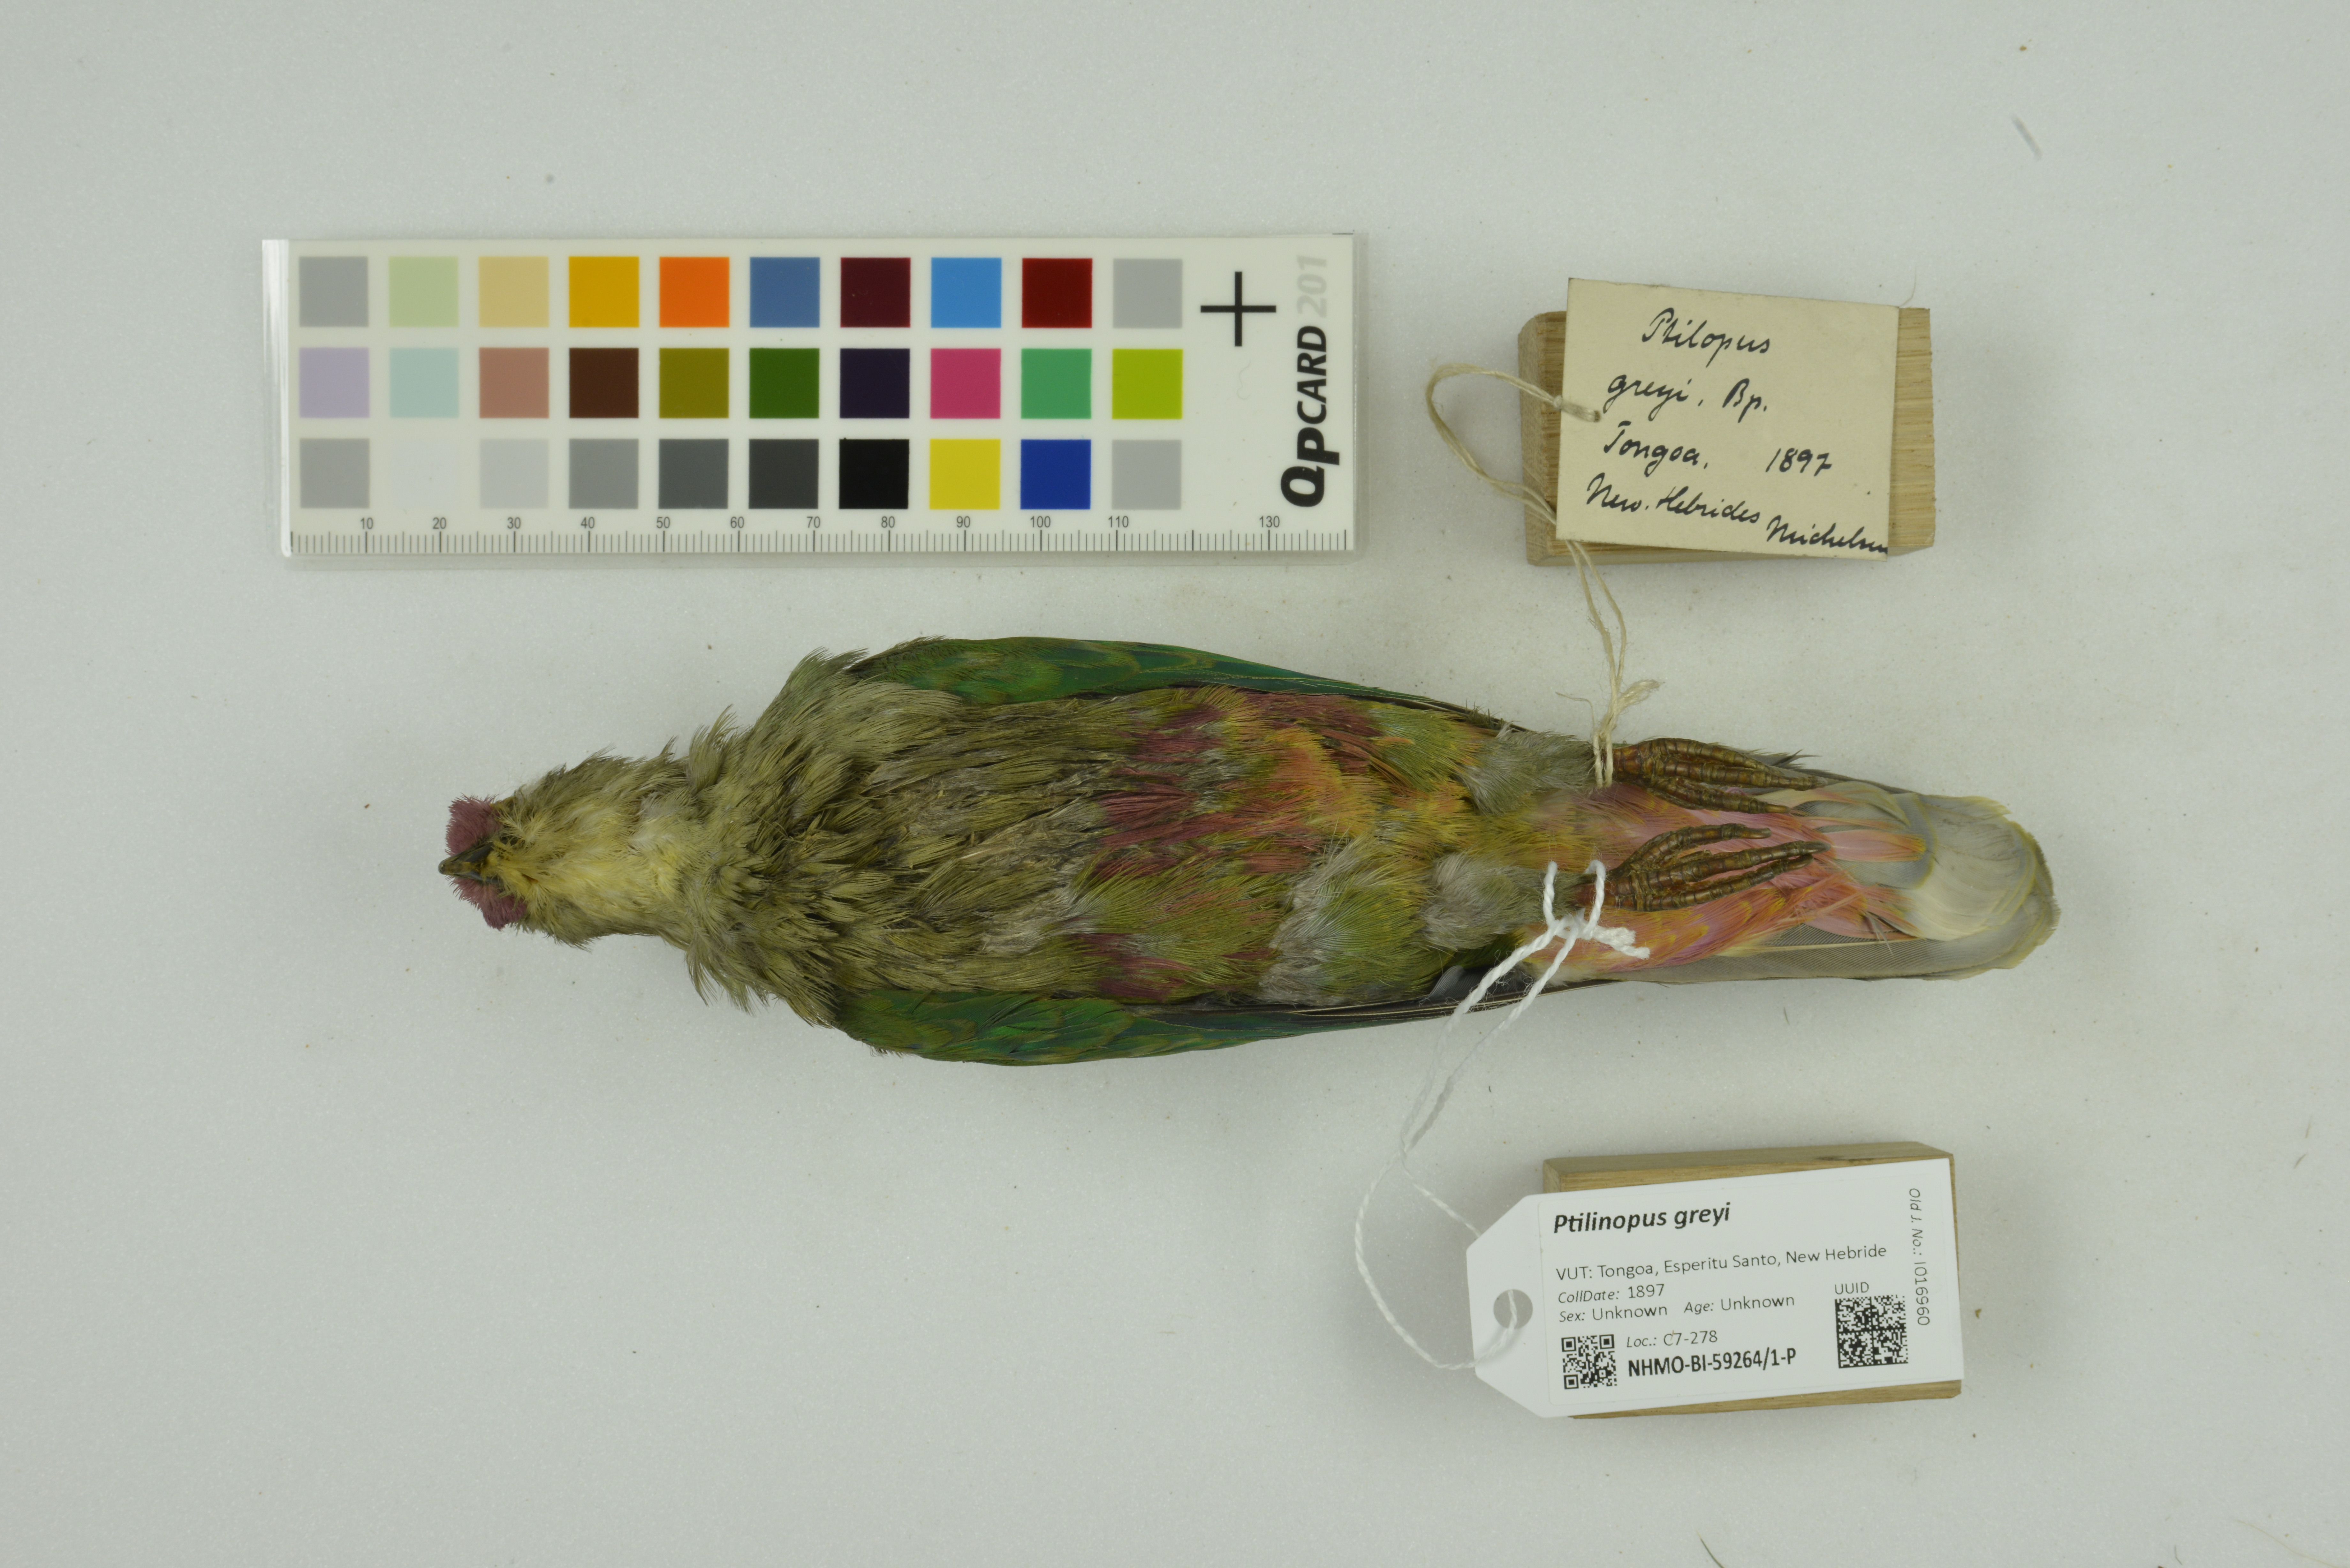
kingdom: Animalia
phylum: Chordata
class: Aves
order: Columbiformes
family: Columbidae
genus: Ptilinopus
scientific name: Ptilinopus greyi
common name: Red-bellied fruit-dove
